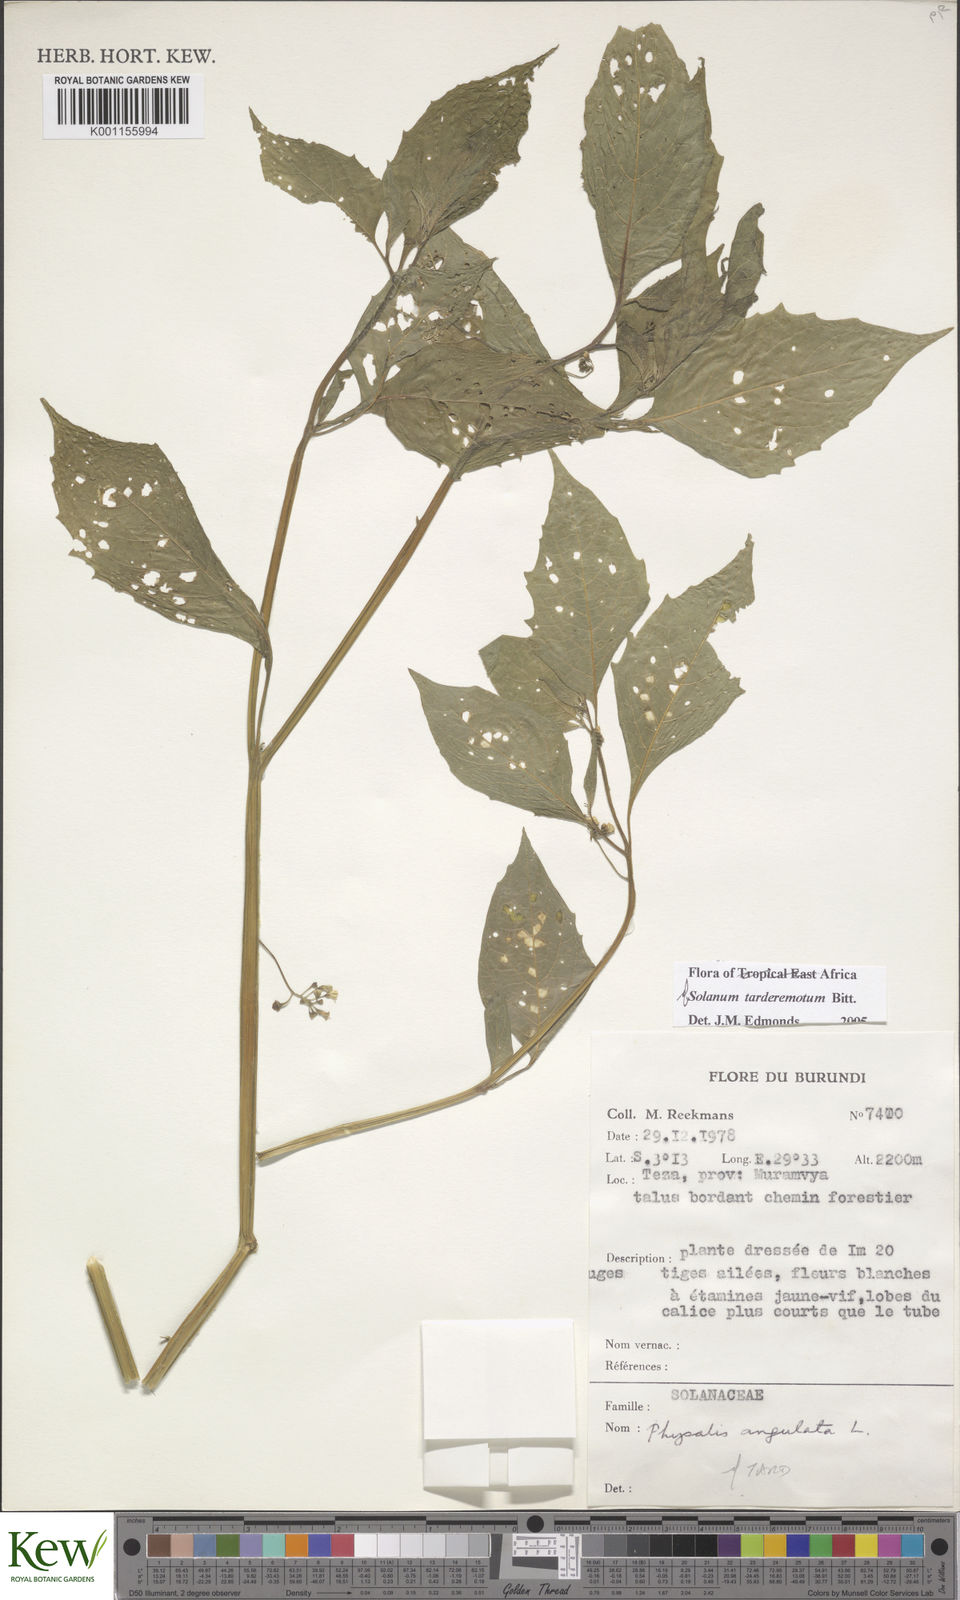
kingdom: Plantae
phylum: Tracheophyta
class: Magnoliopsida
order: Solanales
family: Solanaceae
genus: Solanum
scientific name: Solanum tarderemotum
